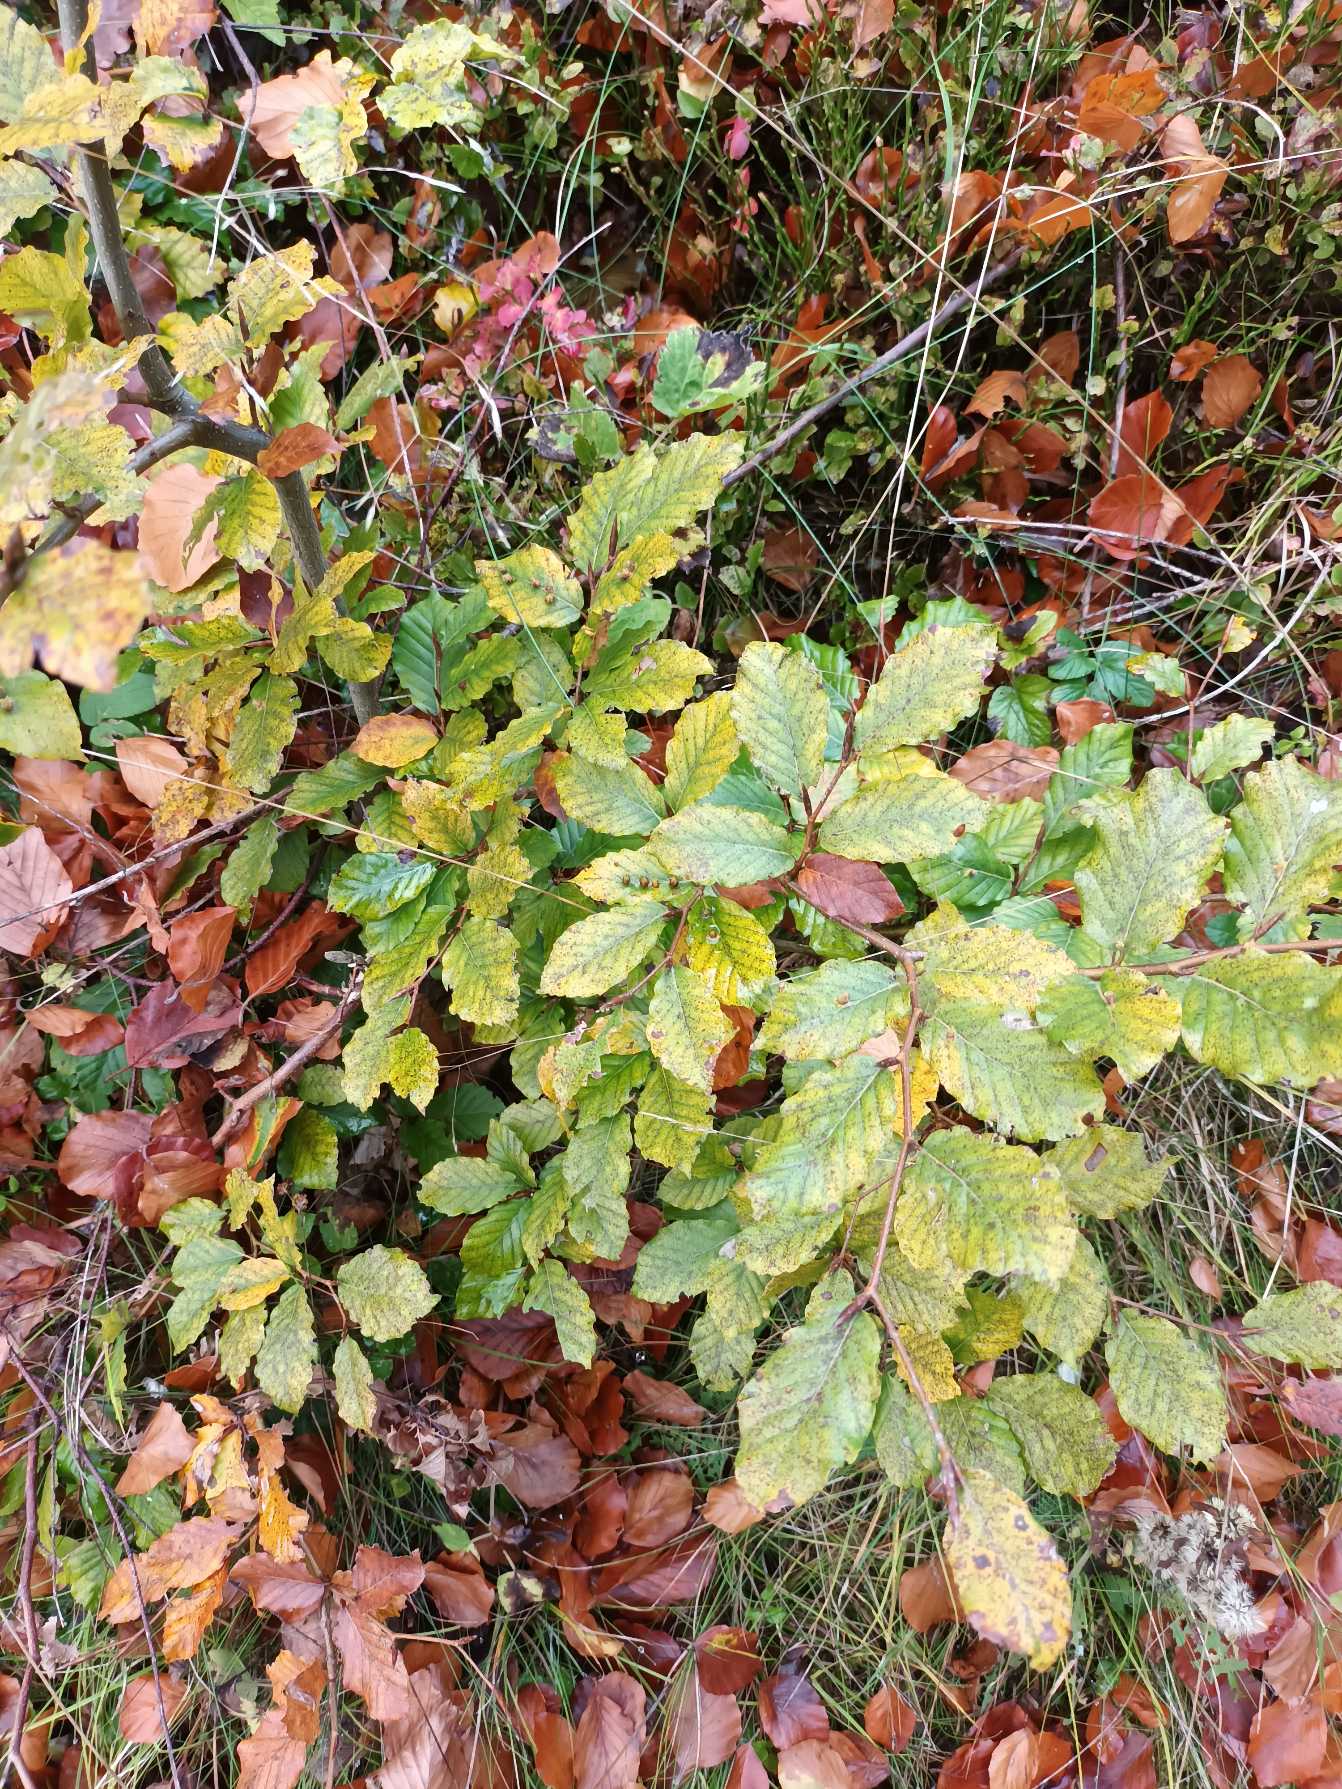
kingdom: Plantae
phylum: Tracheophyta
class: Magnoliopsida
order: Fagales
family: Fagaceae
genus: Fagus
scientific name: Fagus sylvatica
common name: Bøg
